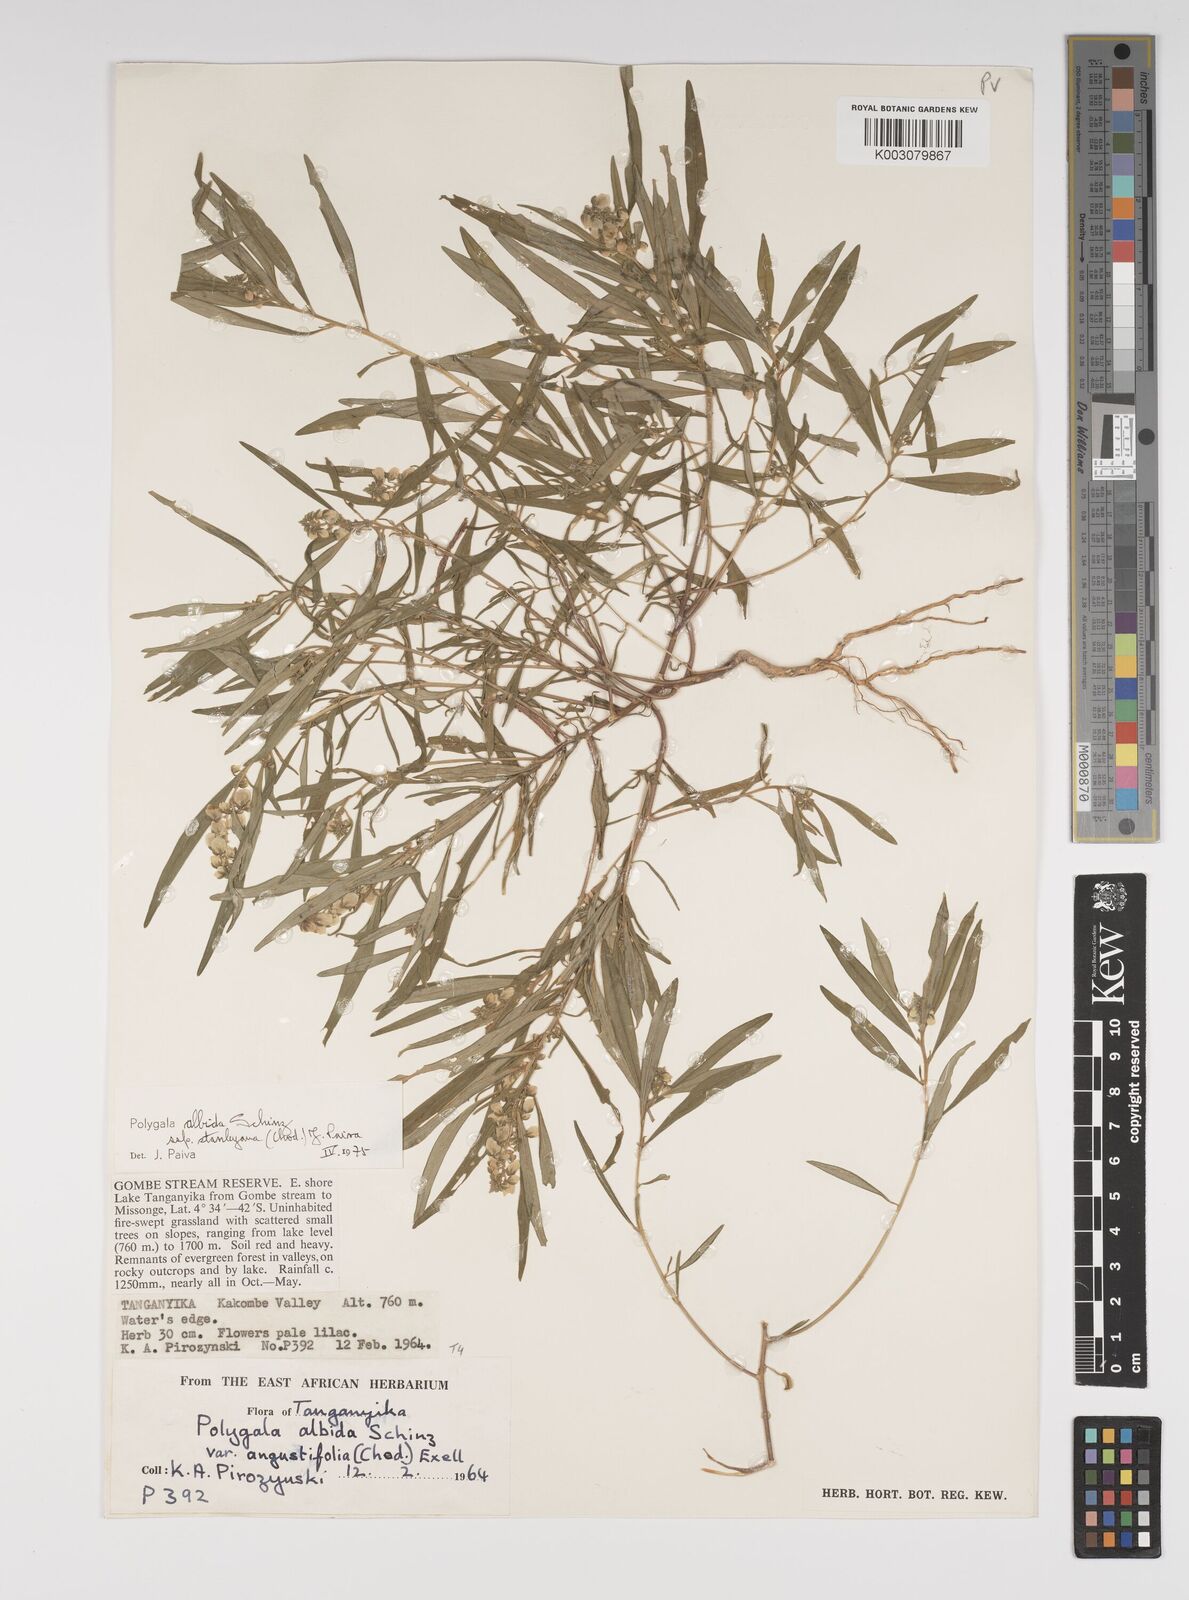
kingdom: Plantae
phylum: Tracheophyta
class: Magnoliopsida
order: Fabales
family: Polygalaceae
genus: Polygala
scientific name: Polygala albida
